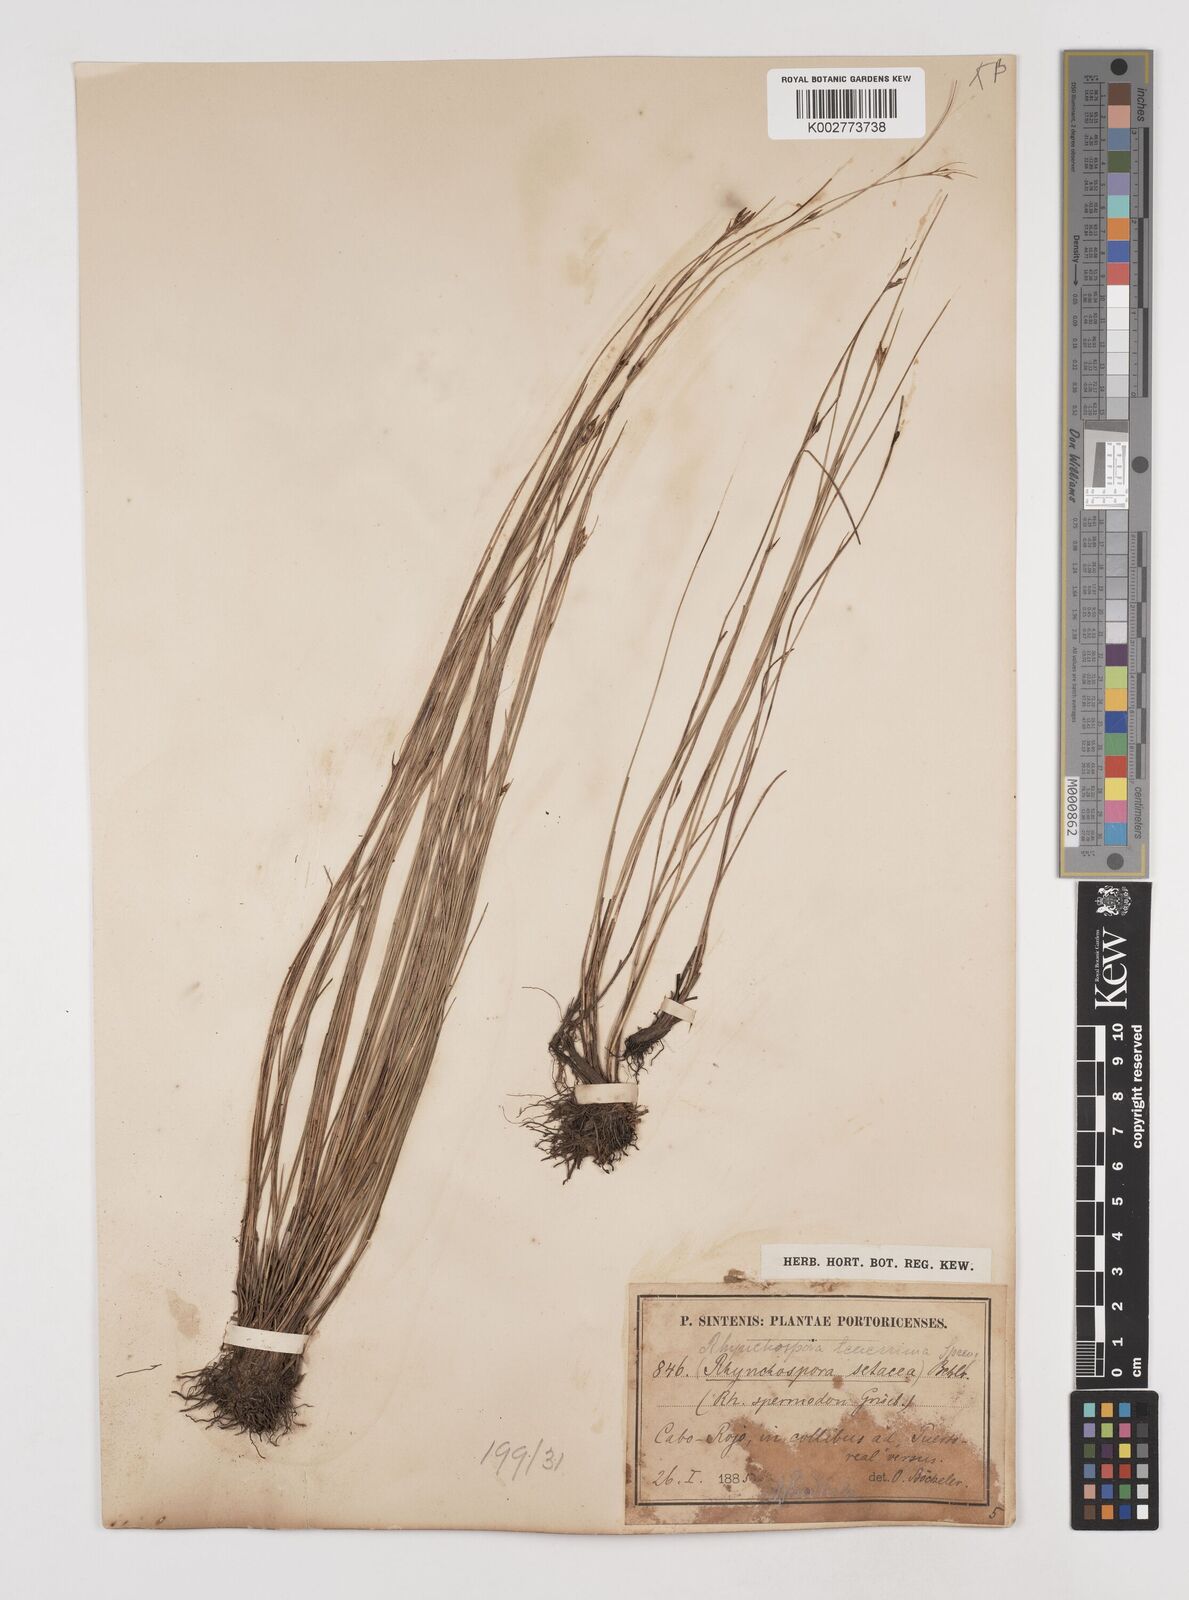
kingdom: Plantae
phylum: Tracheophyta
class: Liliopsida
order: Poales
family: Cyperaceae
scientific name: Cyperaceae
